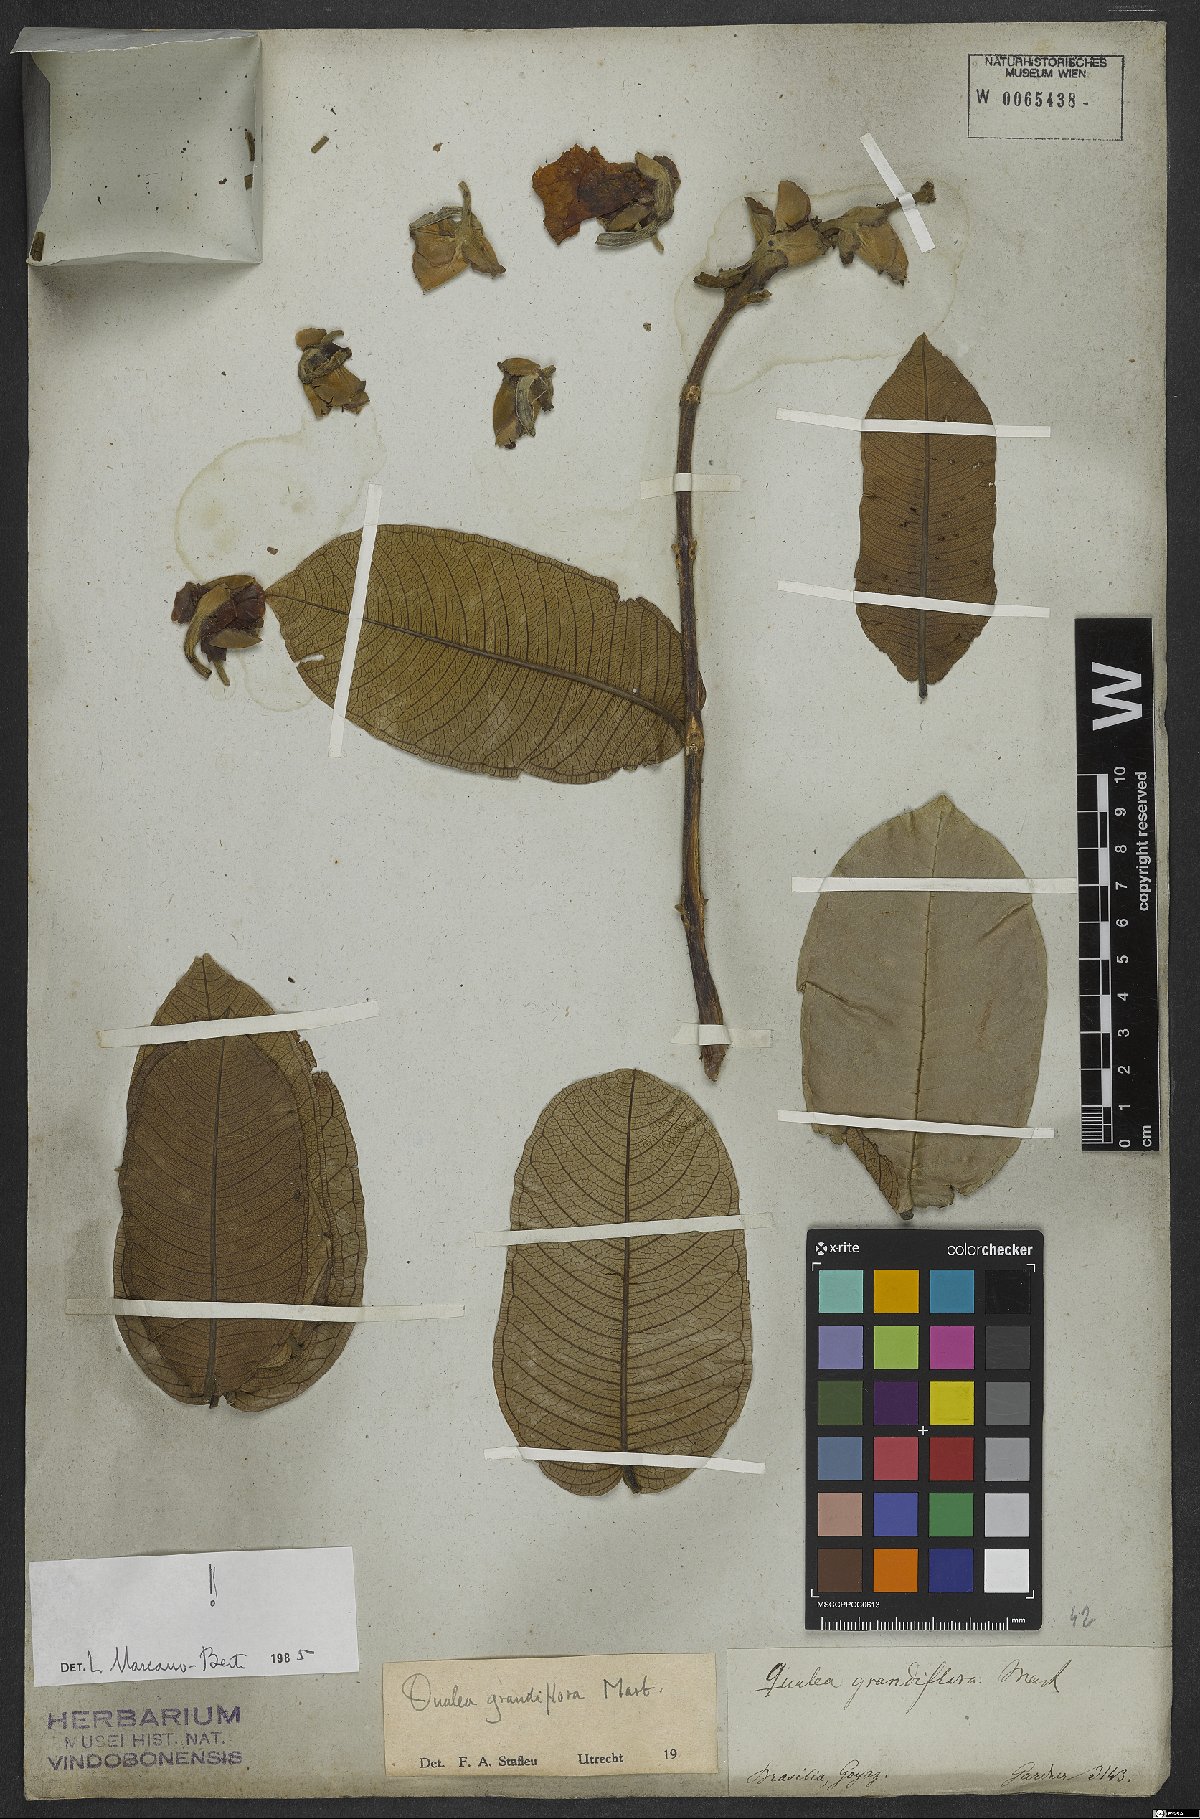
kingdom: Plantae
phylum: Tracheophyta
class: Magnoliopsida
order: Myrtales
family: Vochysiaceae
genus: Qualea
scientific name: Qualea grandiflora
